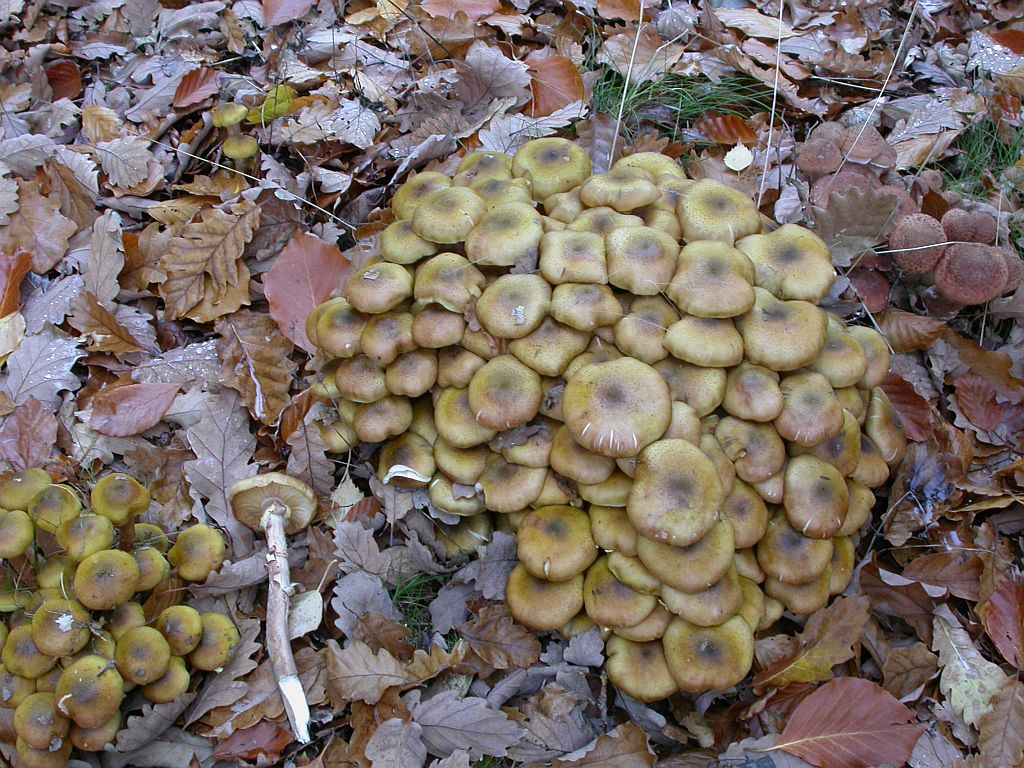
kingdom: Fungi
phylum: Basidiomycota
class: Agaricomycetes
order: Agaricales
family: Physalacriaceae
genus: Armillaria
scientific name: Armillaria mellea
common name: ægte honningsvamp
